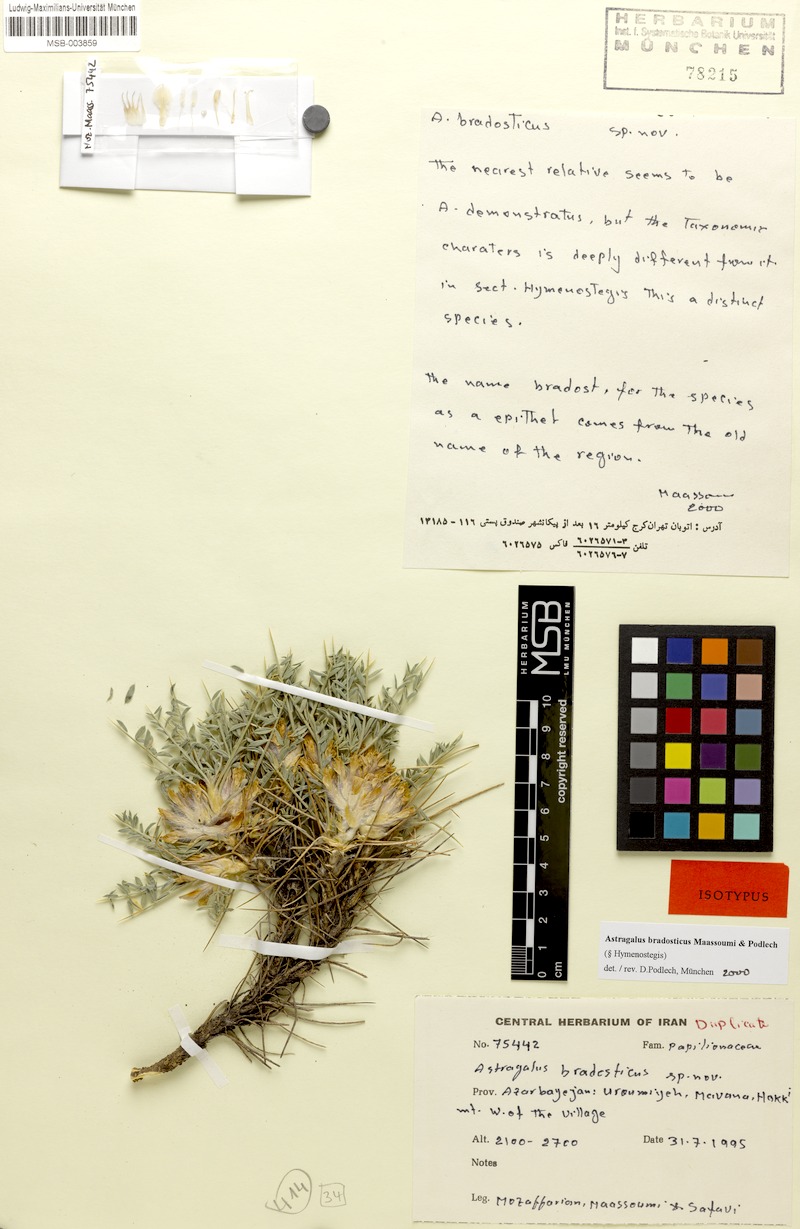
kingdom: Plantae
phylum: Tracheophyta
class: Magnoliopsida
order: Fabales
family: Fabaceae
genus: Astragalus
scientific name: Astragalus bradosticus
